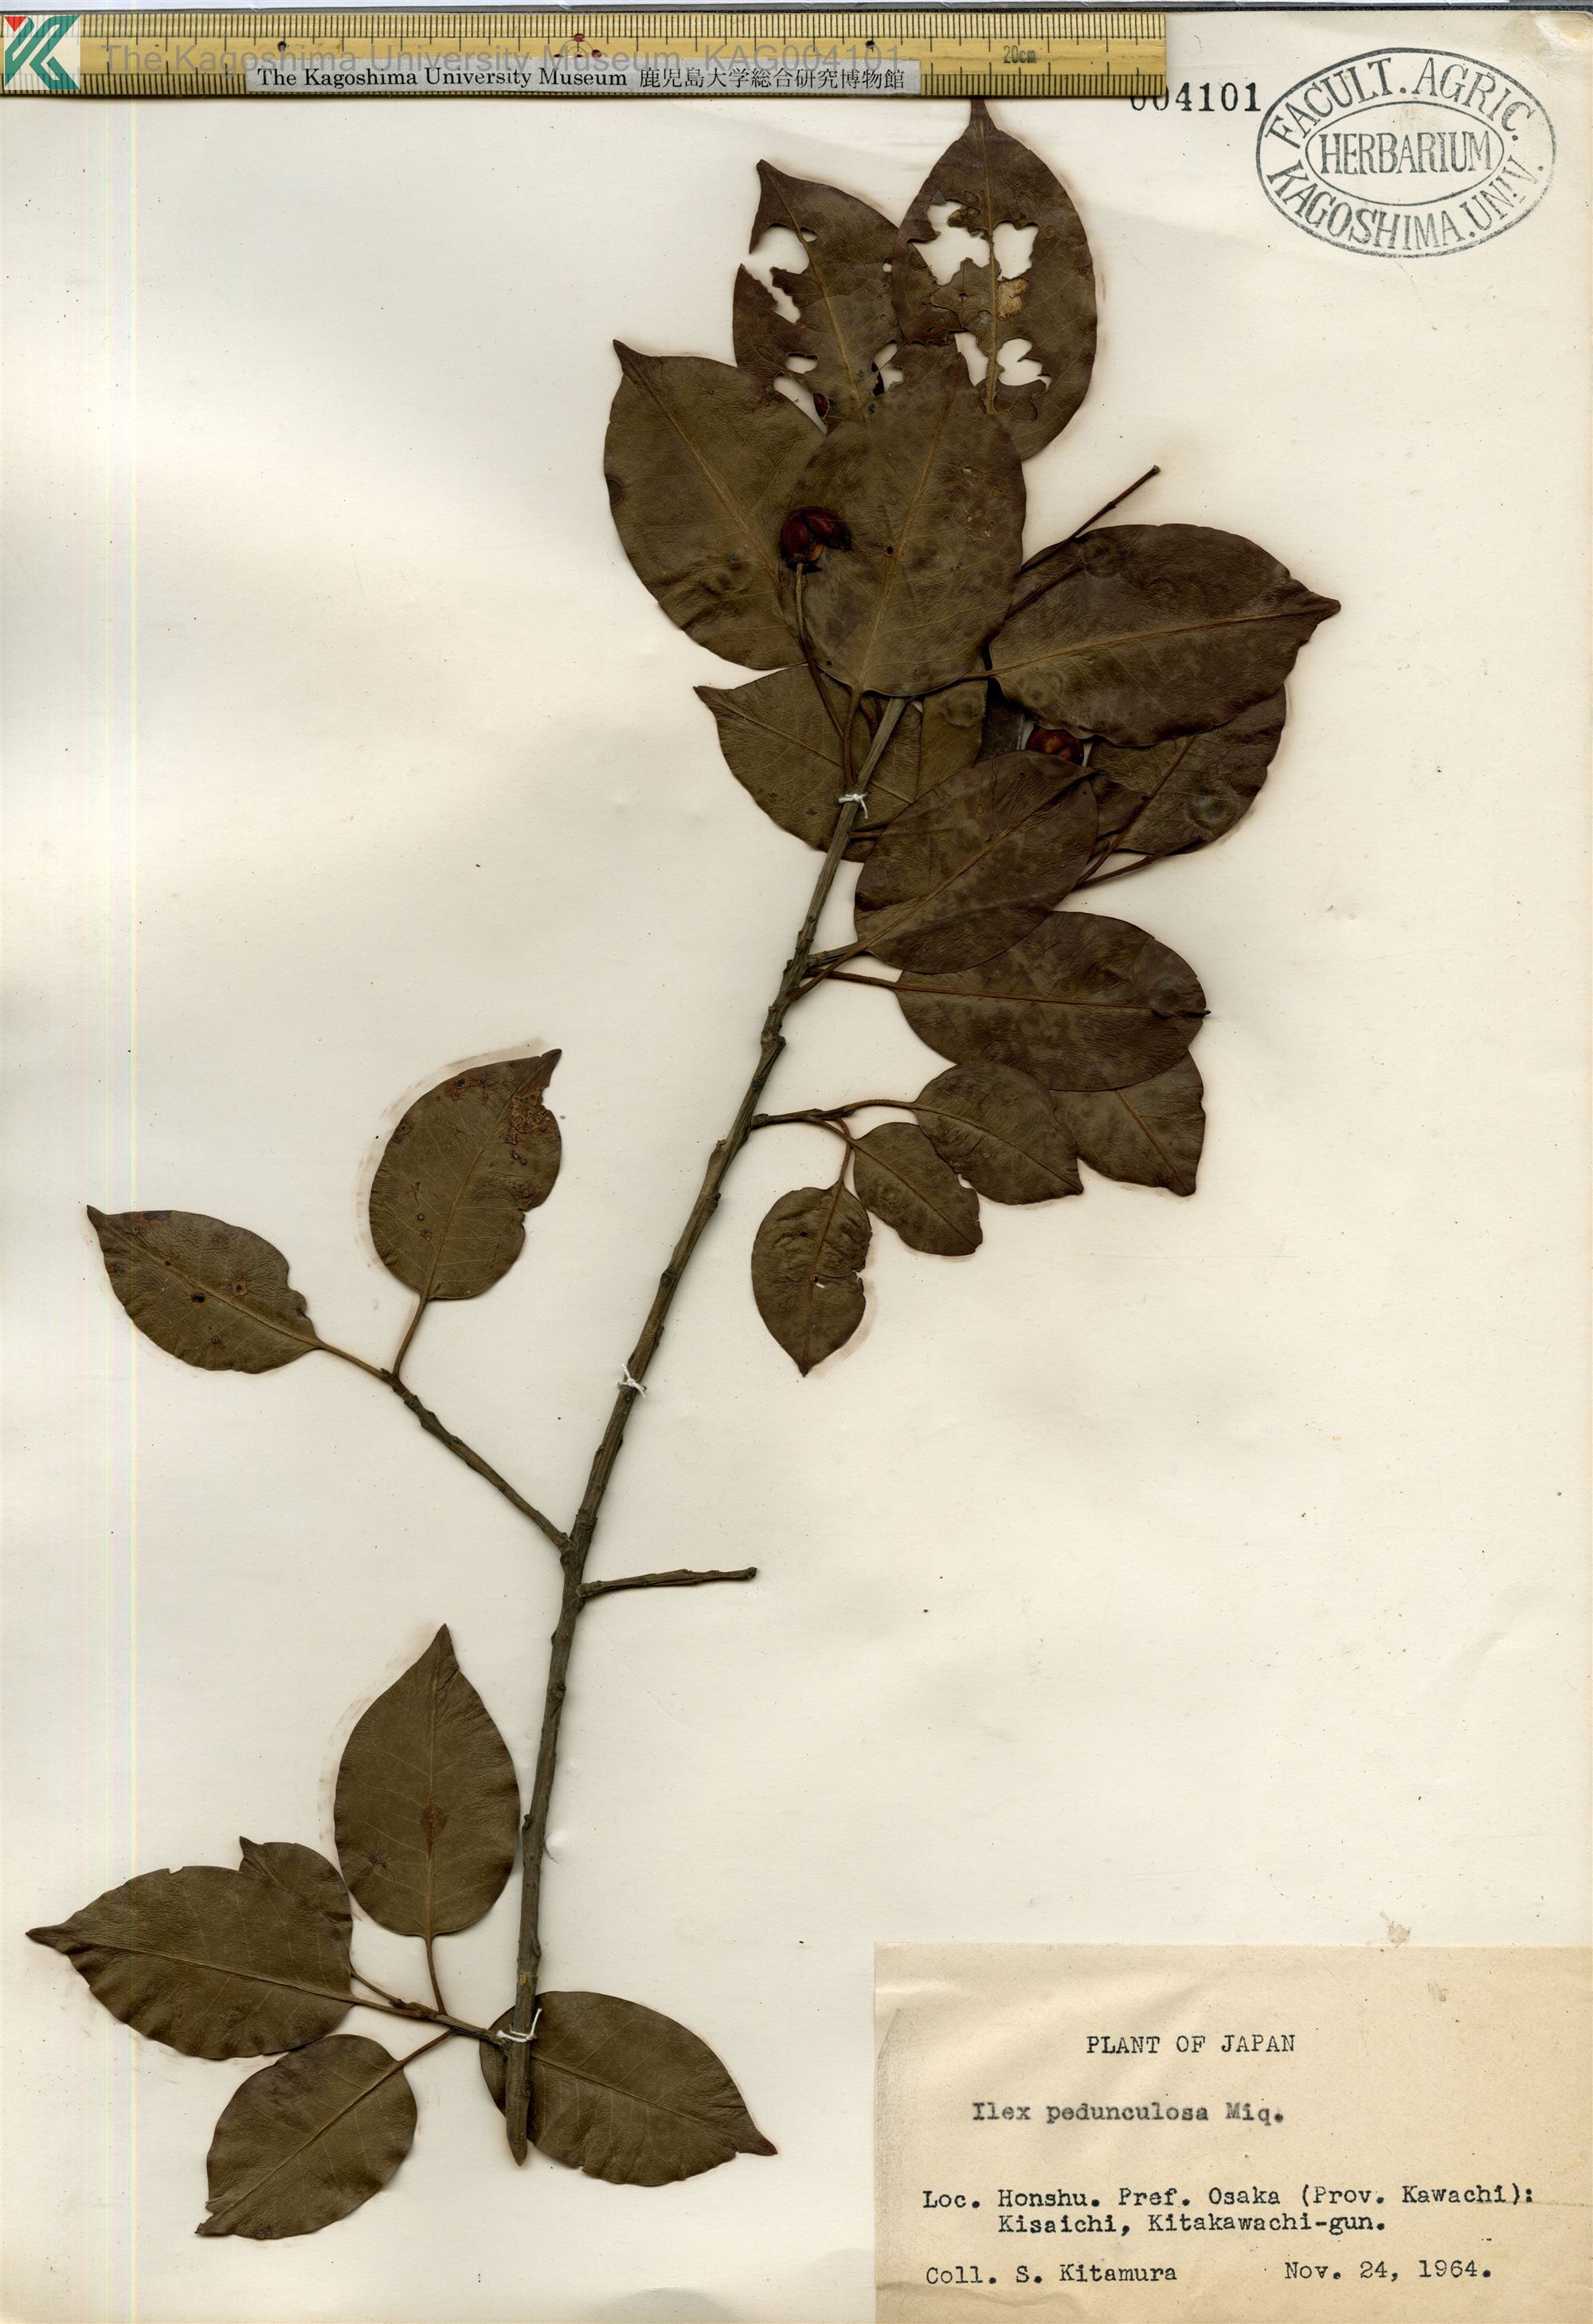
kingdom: Plantae
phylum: Tracheophyta
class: Magnoliopsida
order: Aquifoliales
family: Aquifoliaceae
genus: Ilex
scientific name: Ilex pedunculosa
